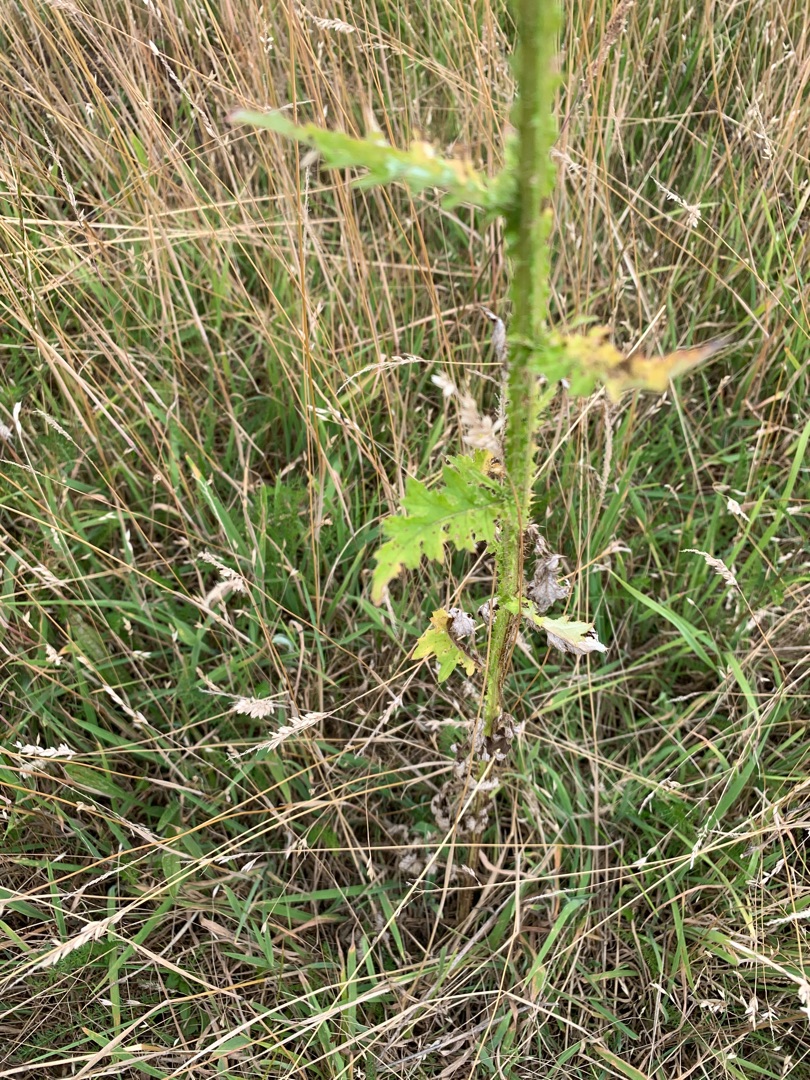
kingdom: Plantae
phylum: Tracheophyta
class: Magnoliopsida
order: Asterales
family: Asteraceae
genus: Carduus
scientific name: Carduus crispus
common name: Kruset tidsel
